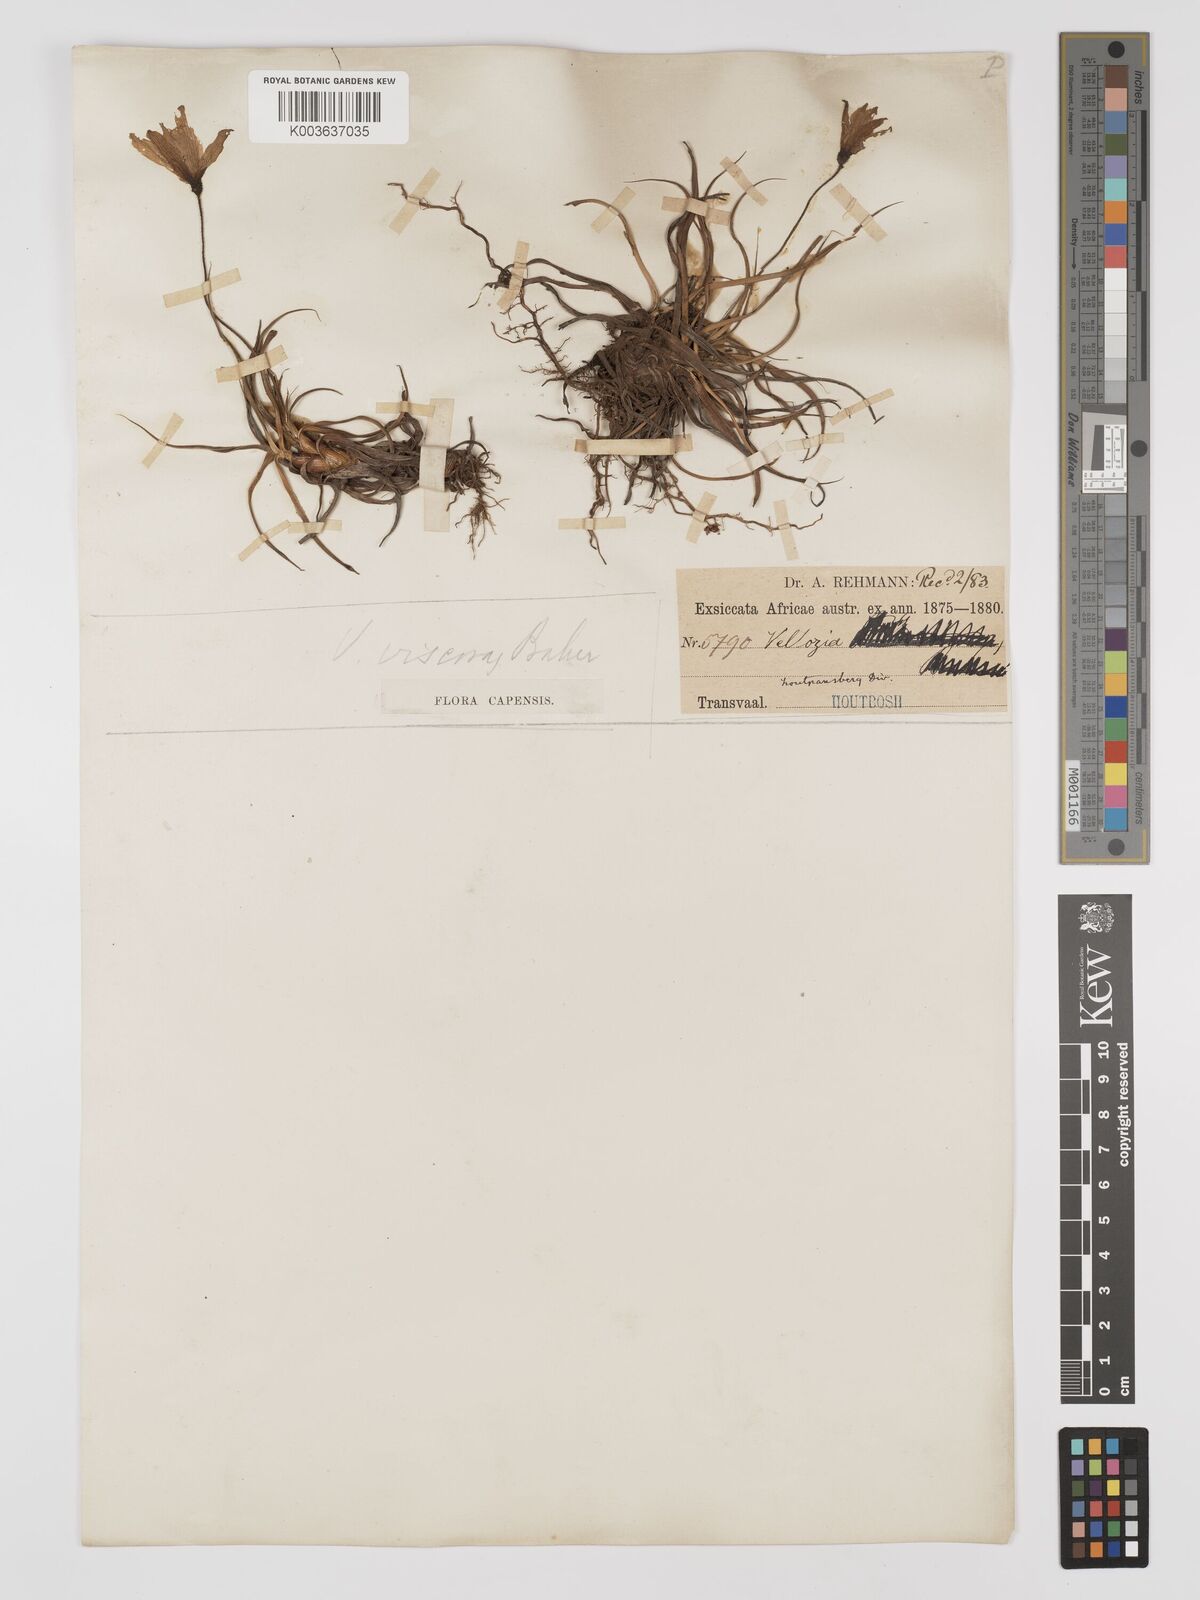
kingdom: Plantae
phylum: Tracheophyta
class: Liliopsida
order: Pandanales
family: Velloziaceae
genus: Xerophyta
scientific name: Xerophyta viscosa
